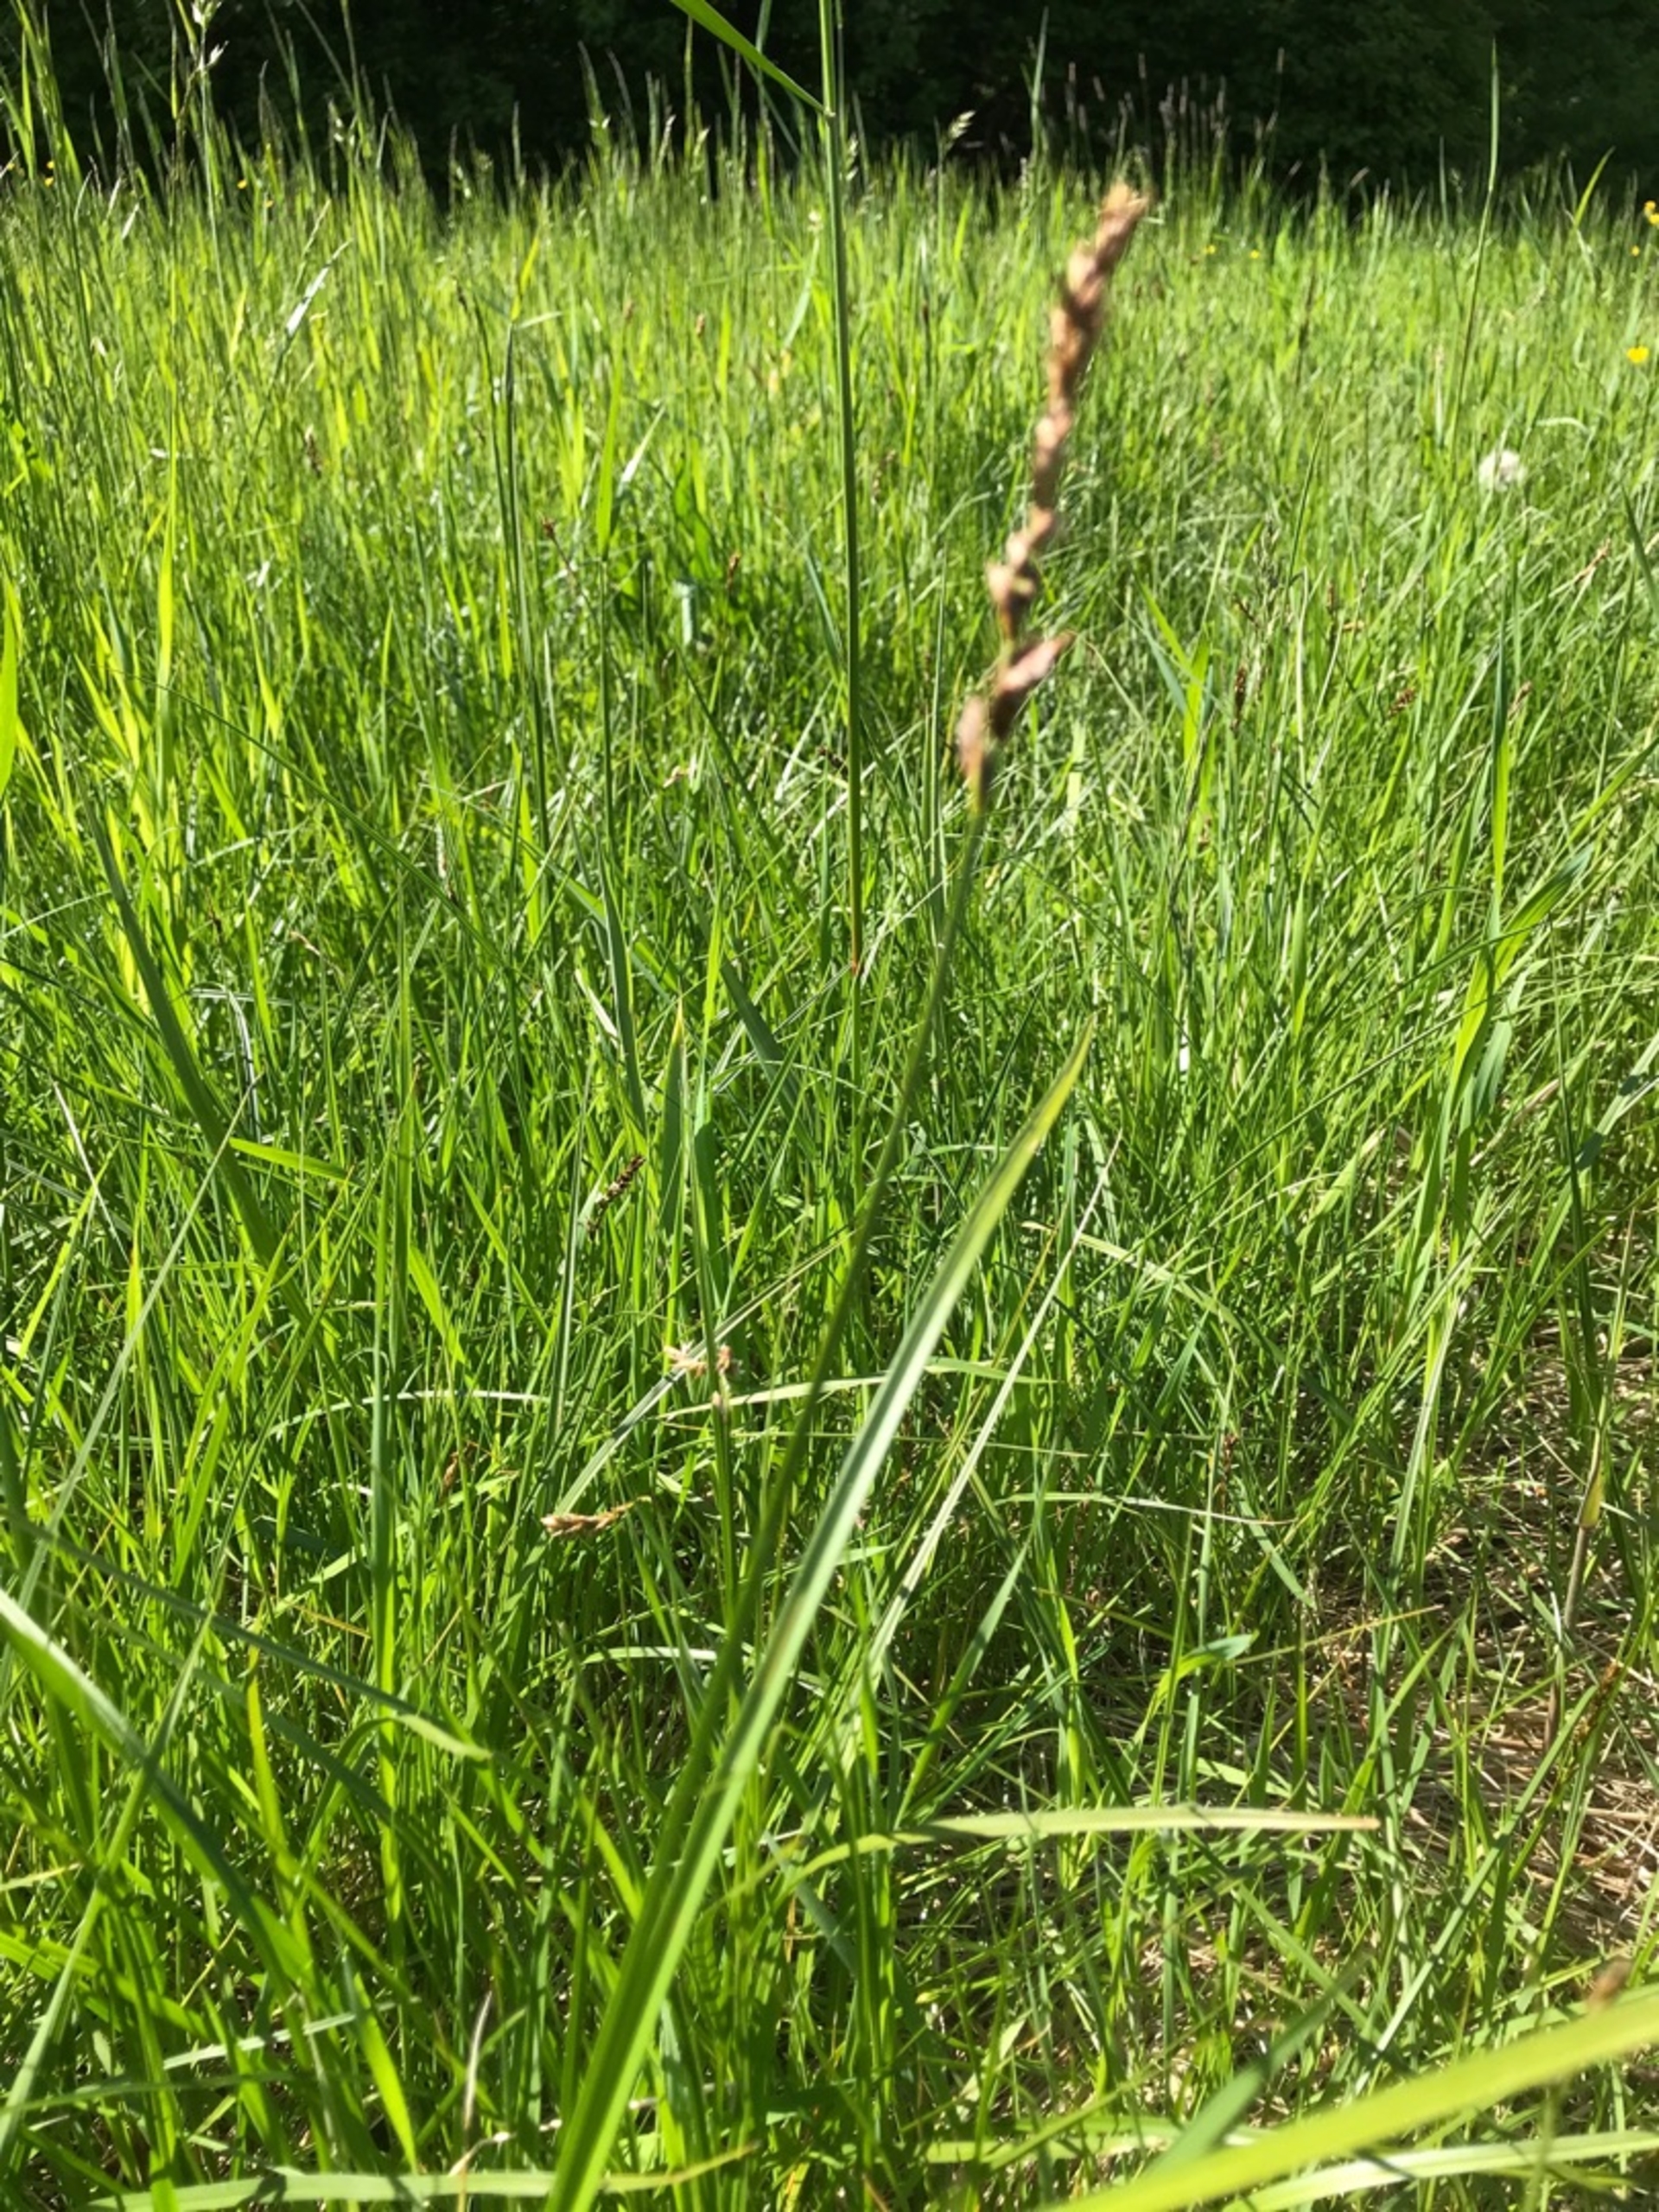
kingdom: Plantae
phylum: Tracheophyta
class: Liliopsida
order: Poales
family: Cyperaceae
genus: Carex
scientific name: Carex disticha
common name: Toradet star
